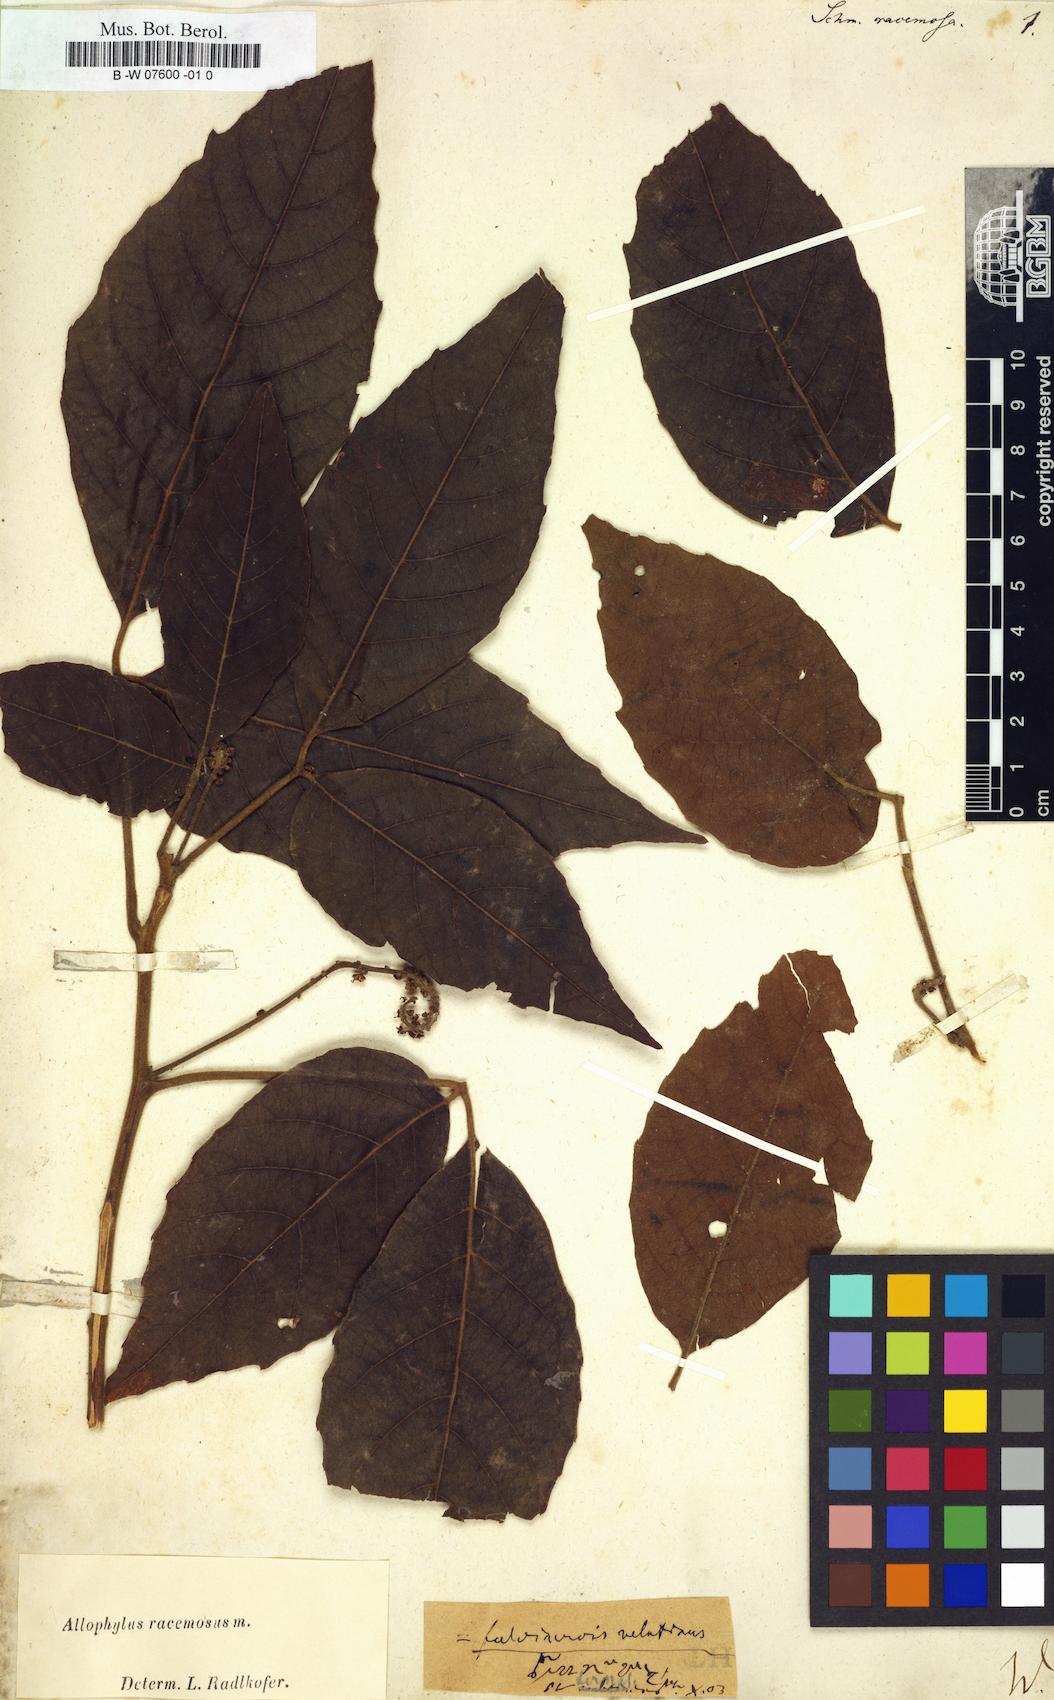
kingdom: Plantae
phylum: Tracheophyta
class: Magnoliopsida
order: Sapindales
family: Sapindaceae
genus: Allophylus
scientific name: Allophylus triphyllus
